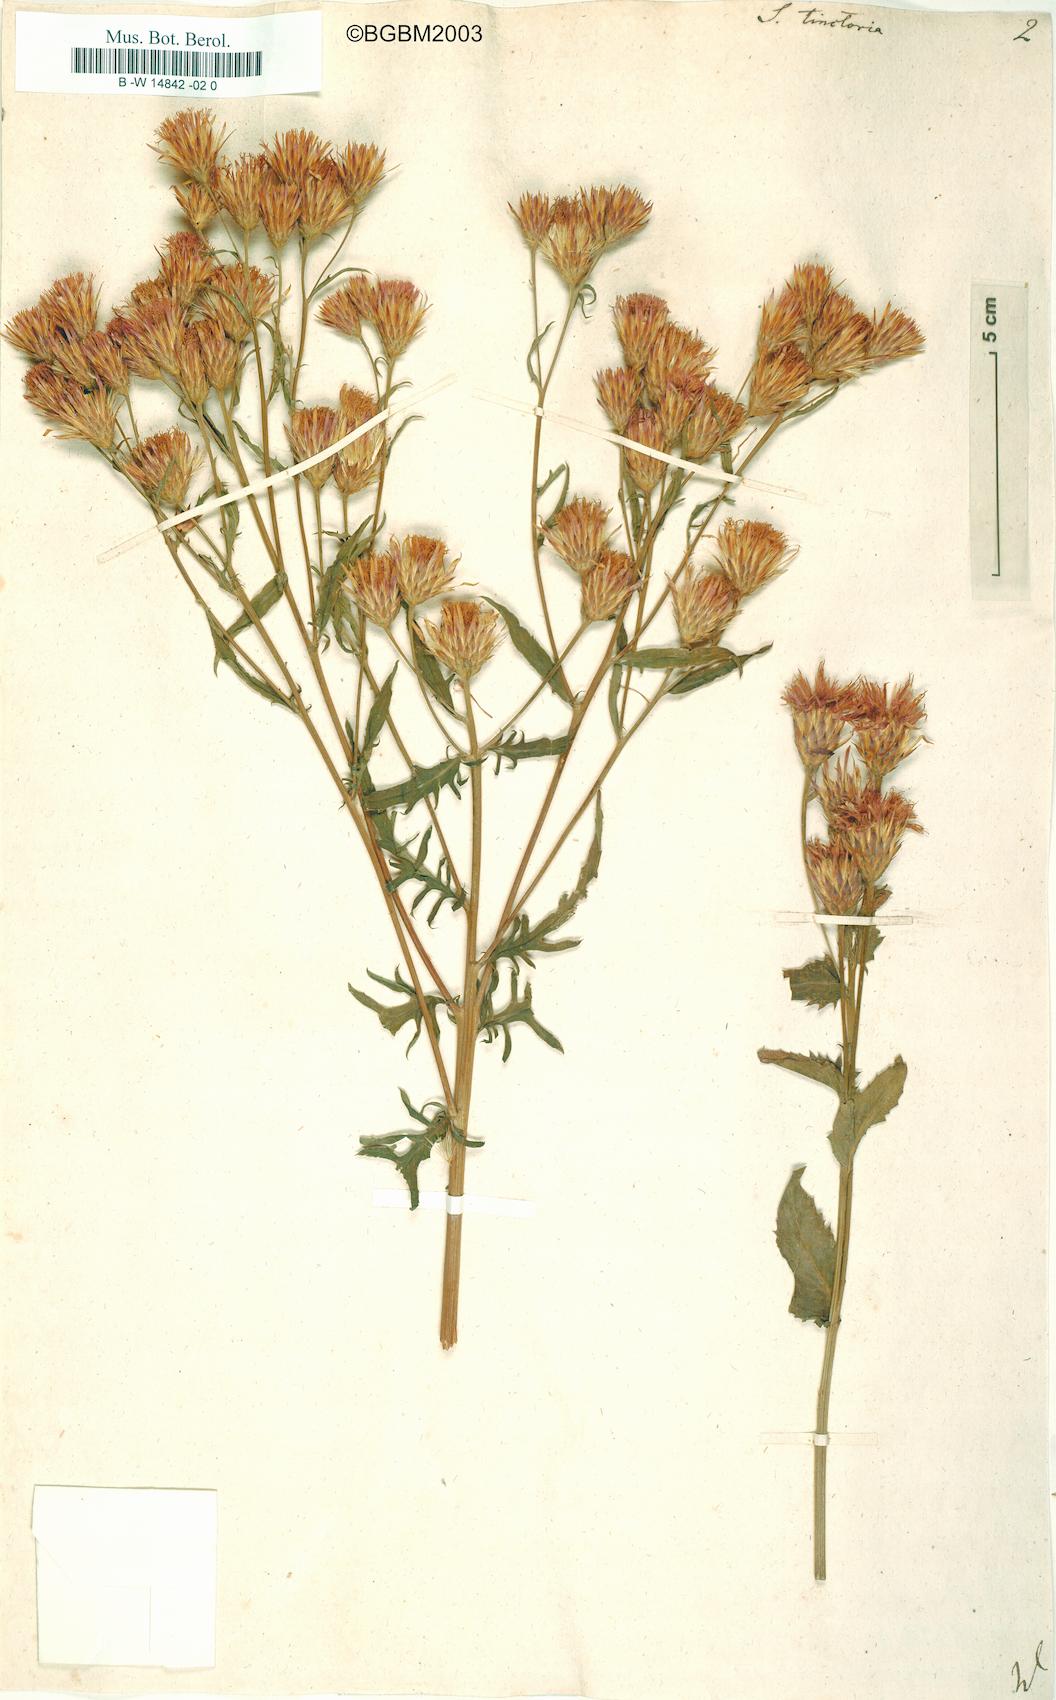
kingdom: Plantae
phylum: Tracheophyta
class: Magnoliopsida
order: Asterales
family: Asteraceae
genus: Serratula
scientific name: Serratula tinctoria
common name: Saw-wort
